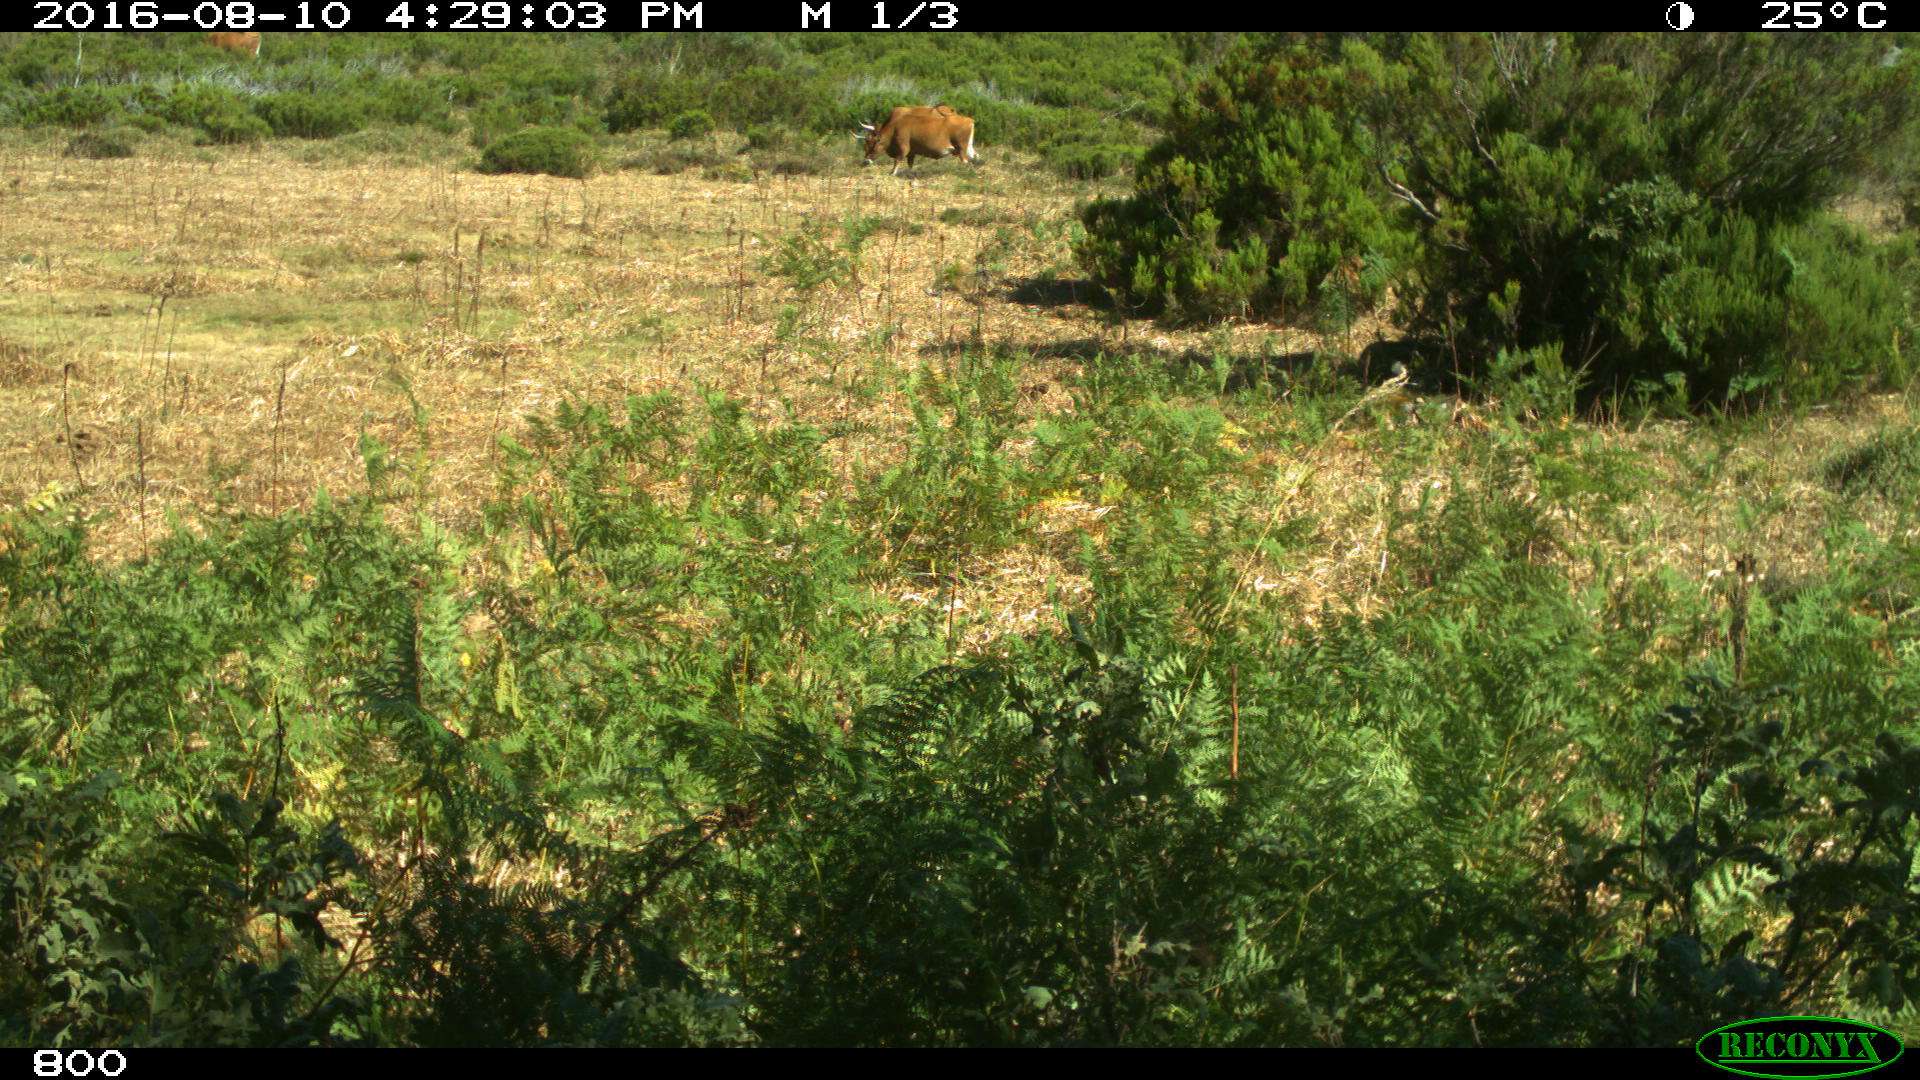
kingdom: Animalia
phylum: Chordata
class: Mammalia
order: Artiodactyla
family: Bovidae
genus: Bos
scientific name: Bos taurus
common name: Domesticated cattle
